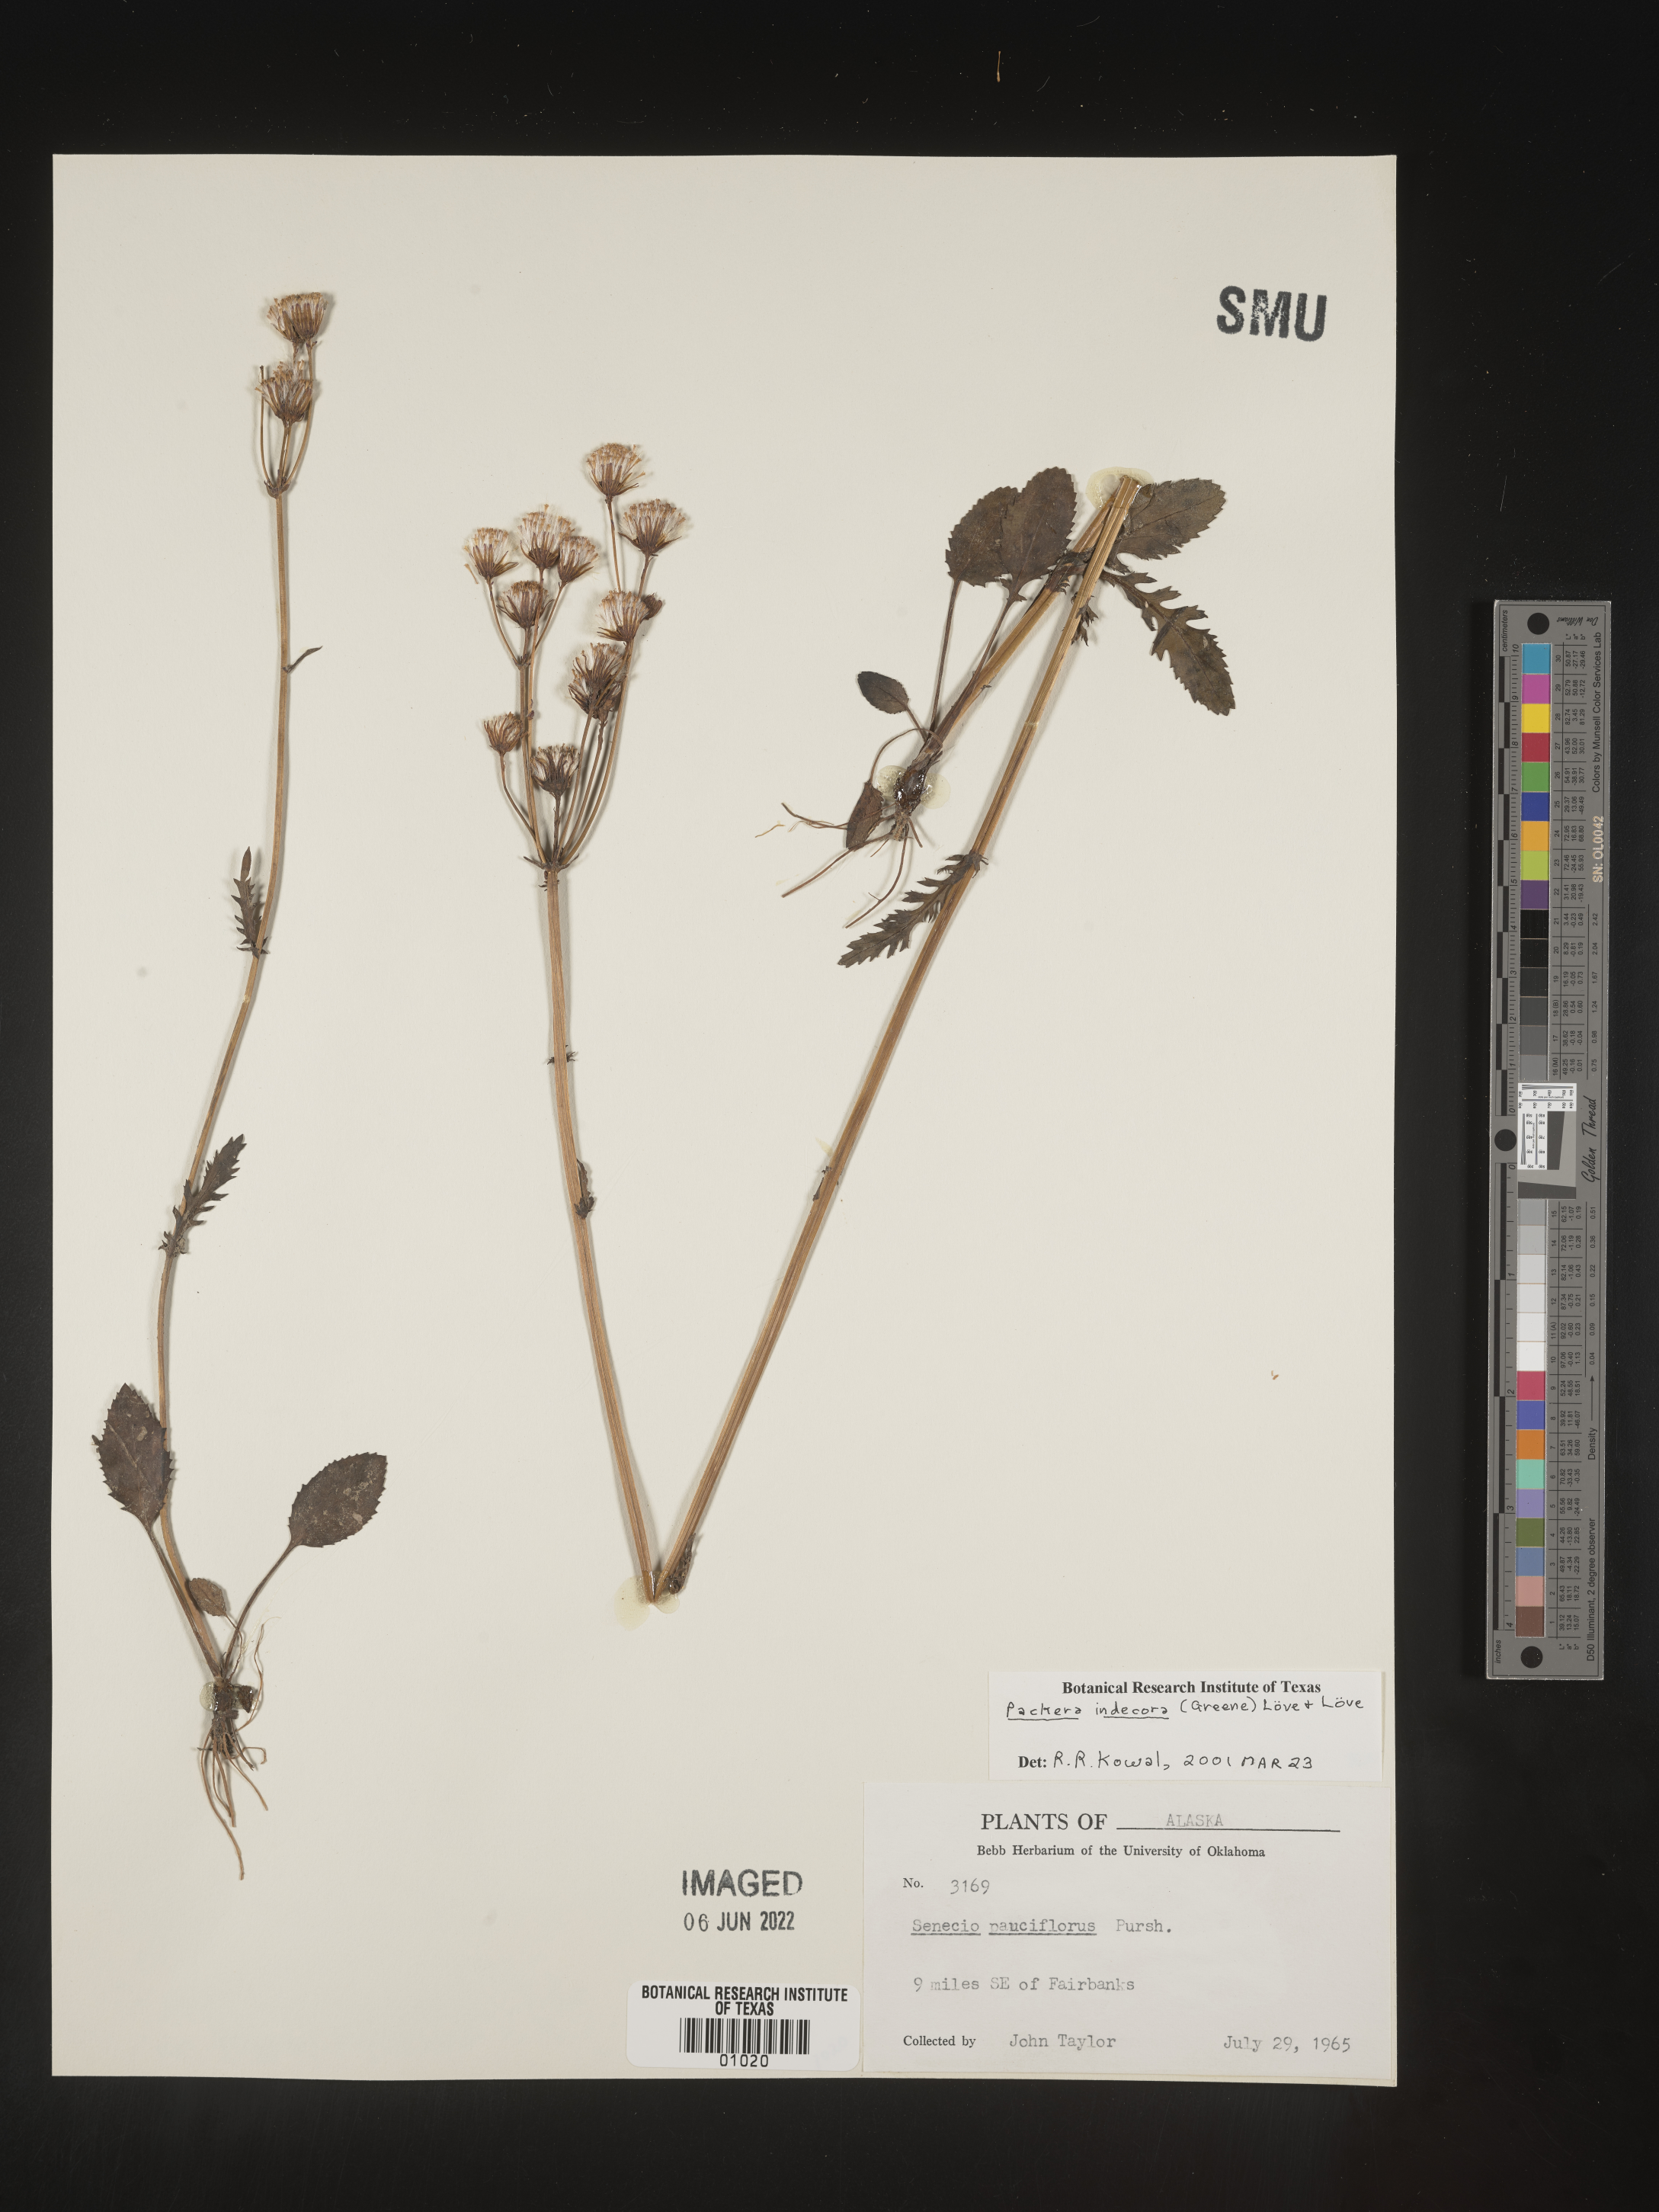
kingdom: Plantae
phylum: Tracheophyta
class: Magnoliopsida
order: Asterales
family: Asteraceae
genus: Packera
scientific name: Packera
